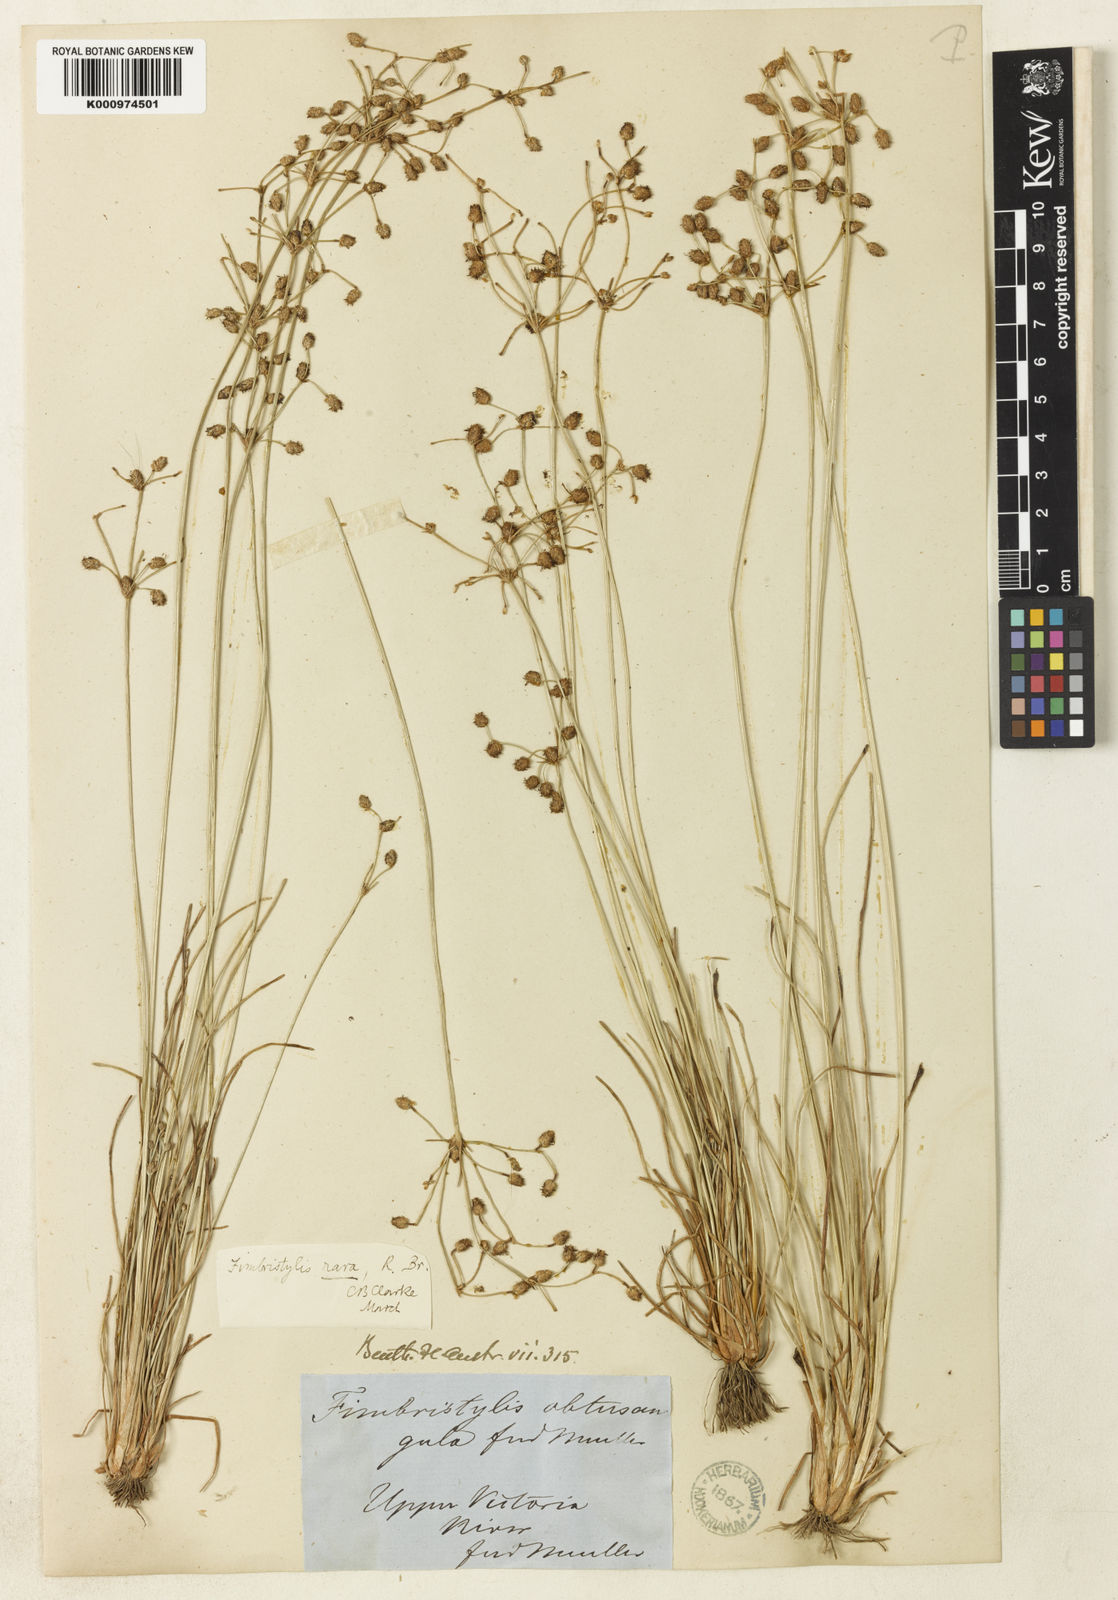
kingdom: Plantae
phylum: Tracheophyta
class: Liliopsida
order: Poales
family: Cyperaceae
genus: Fimbristylis
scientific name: Fimbristylis rara
